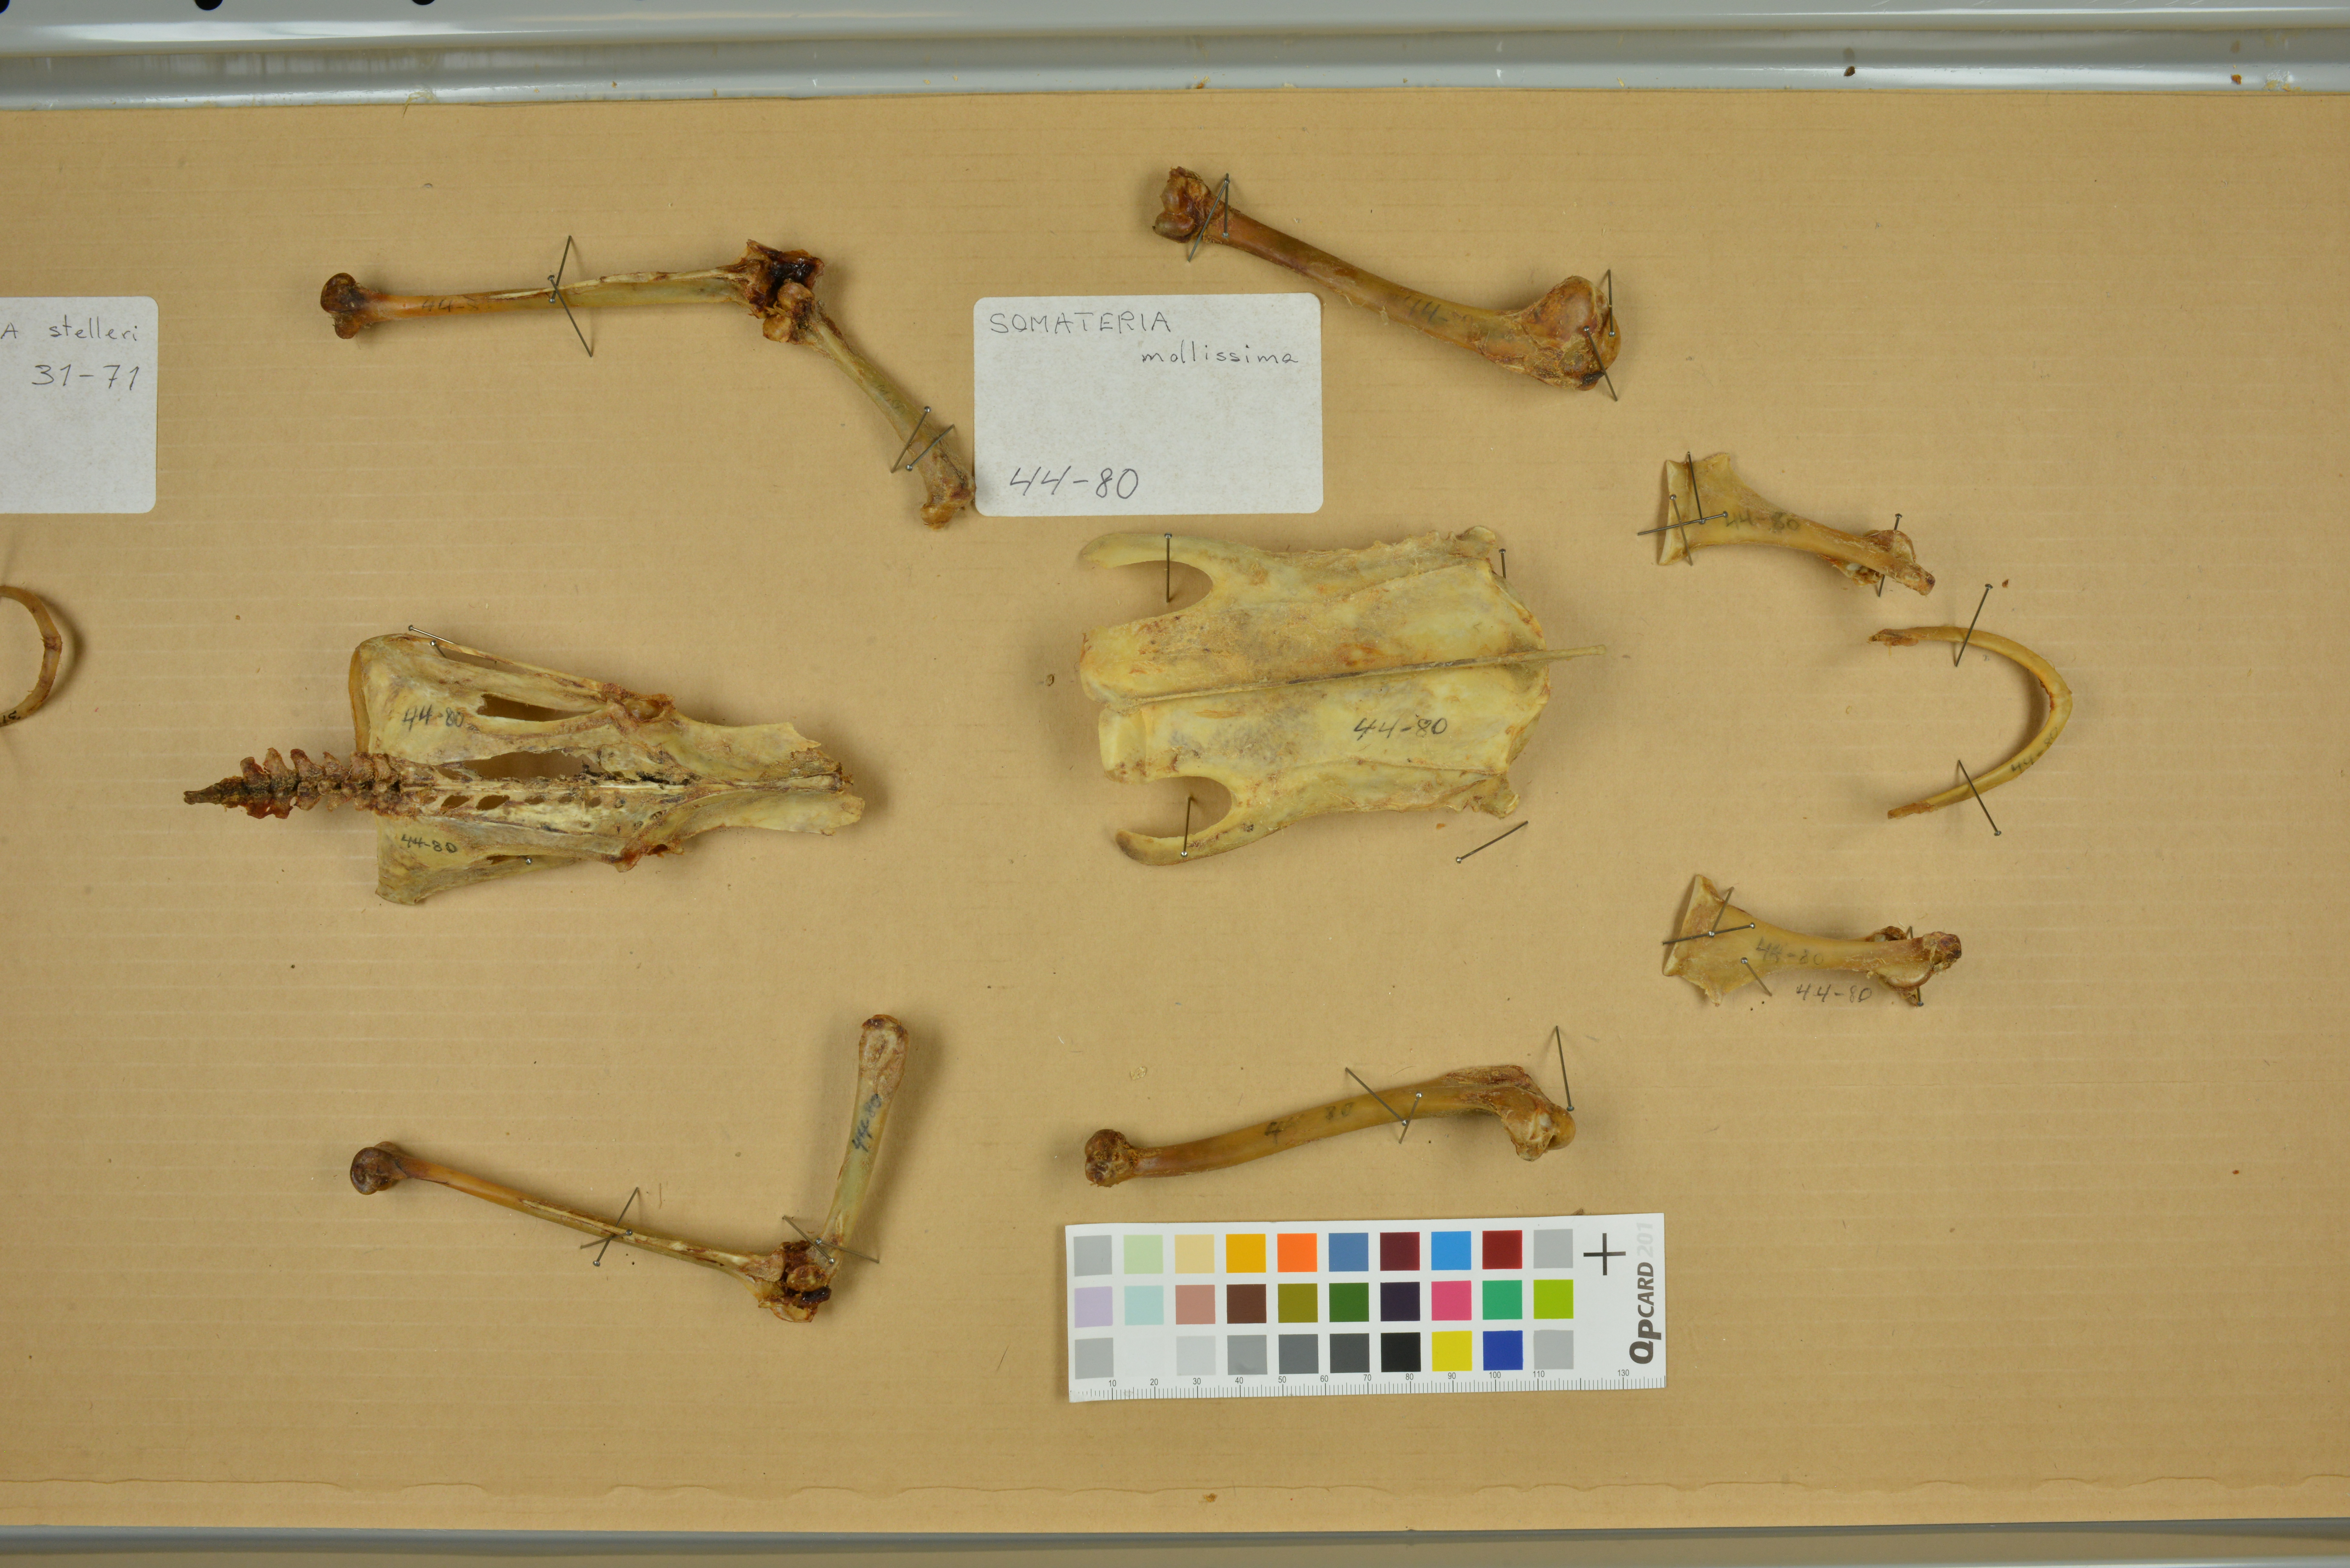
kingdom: Animalia
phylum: Chordata
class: Aves
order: Anseriformes
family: Anatidae
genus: Somateria
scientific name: Somateria mollissima
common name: Common eider
